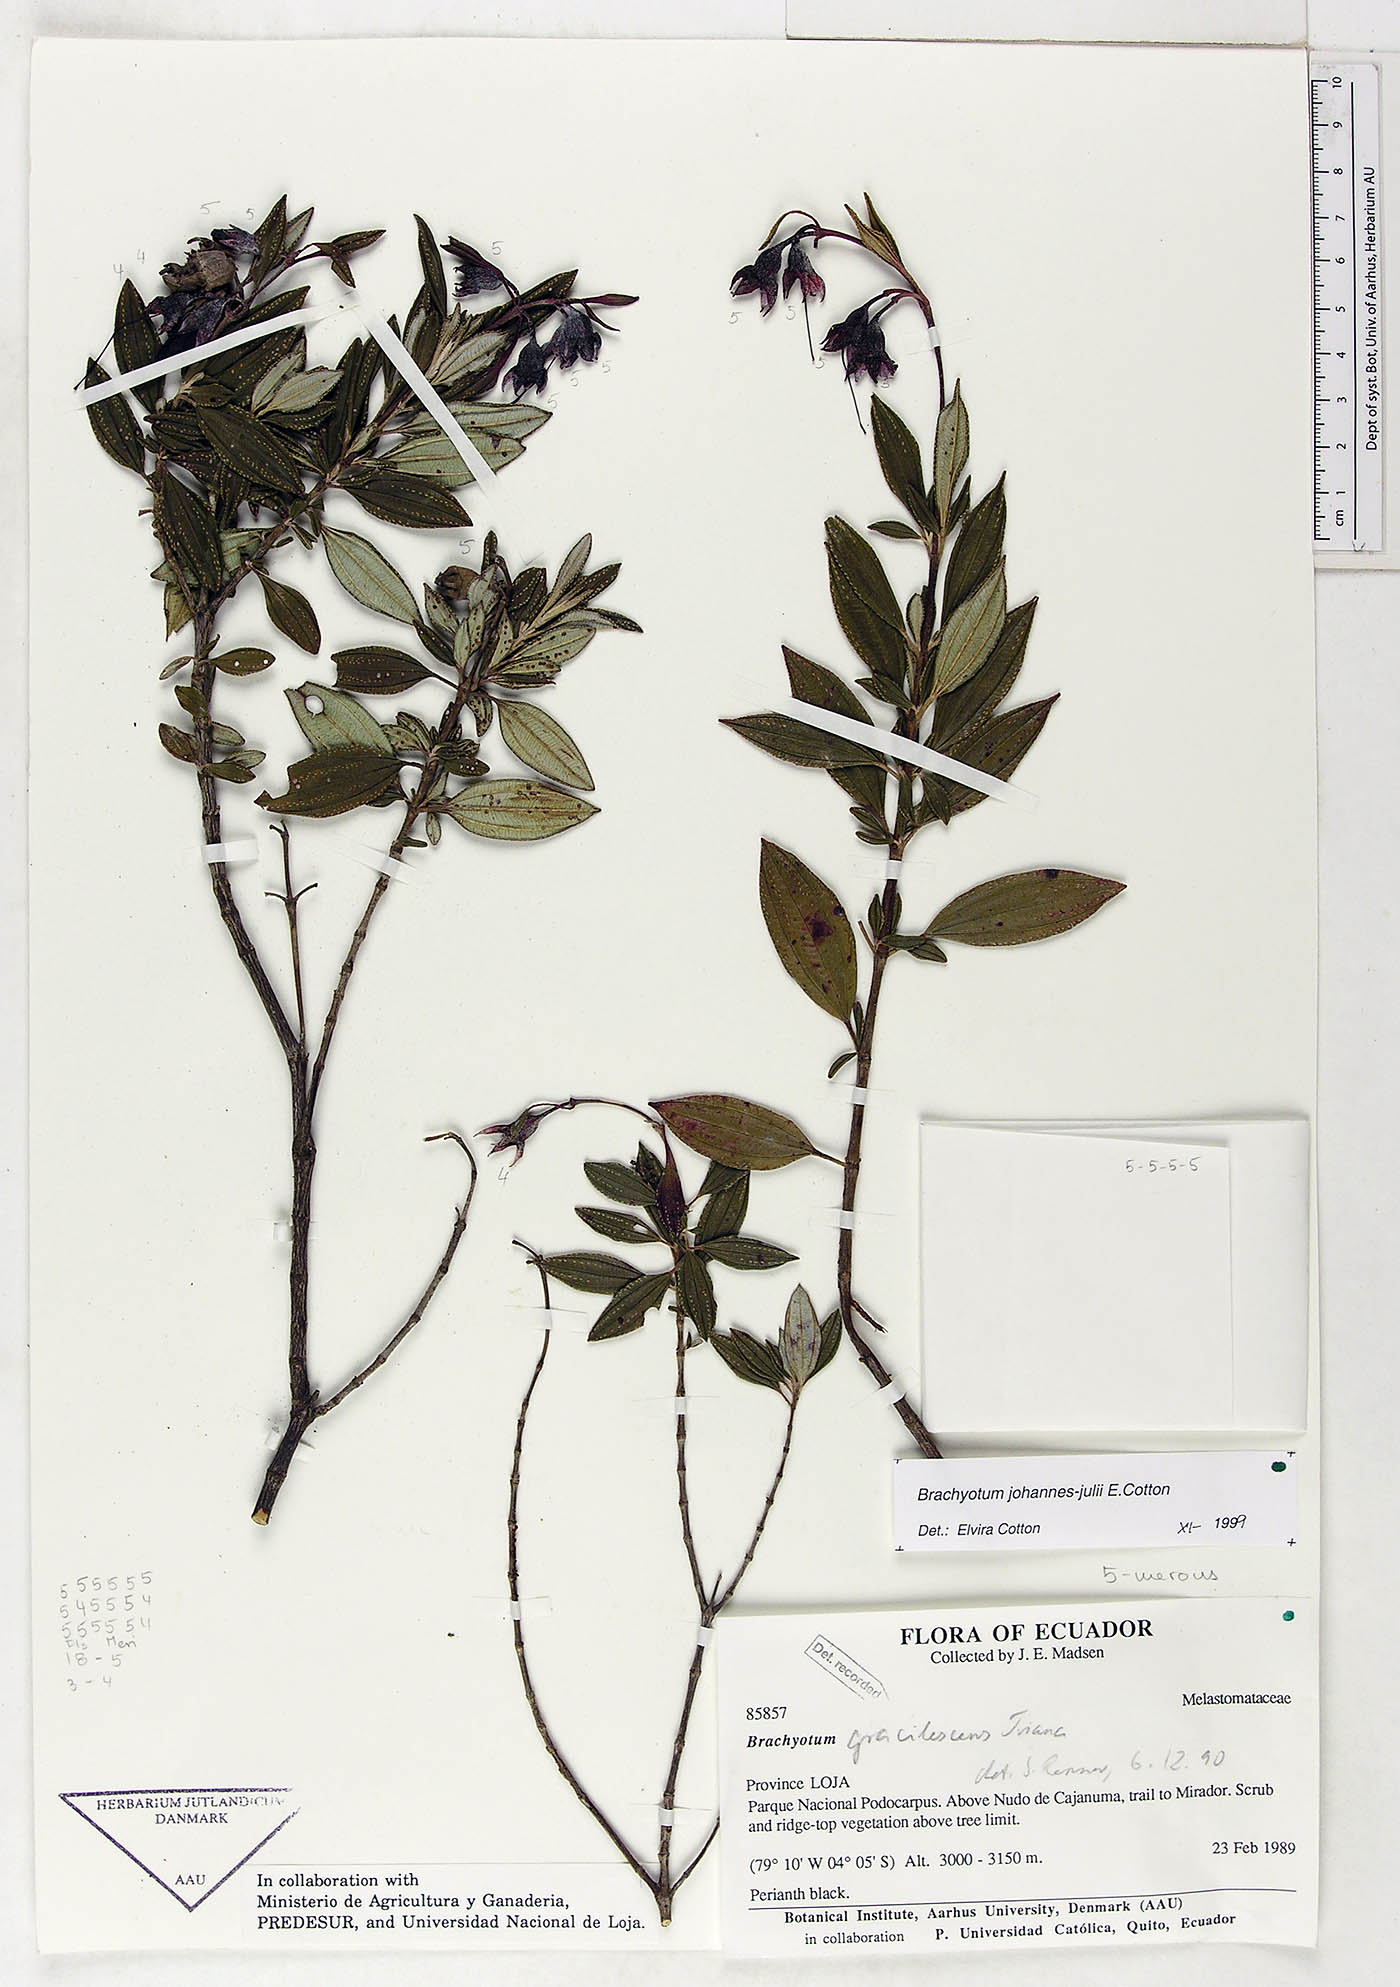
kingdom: Plantae
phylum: Tracheophyta
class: Magnoliopsida
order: Myrtales
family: Melastomataceae
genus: Brachyotum
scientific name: Brachyotum gracilescens
